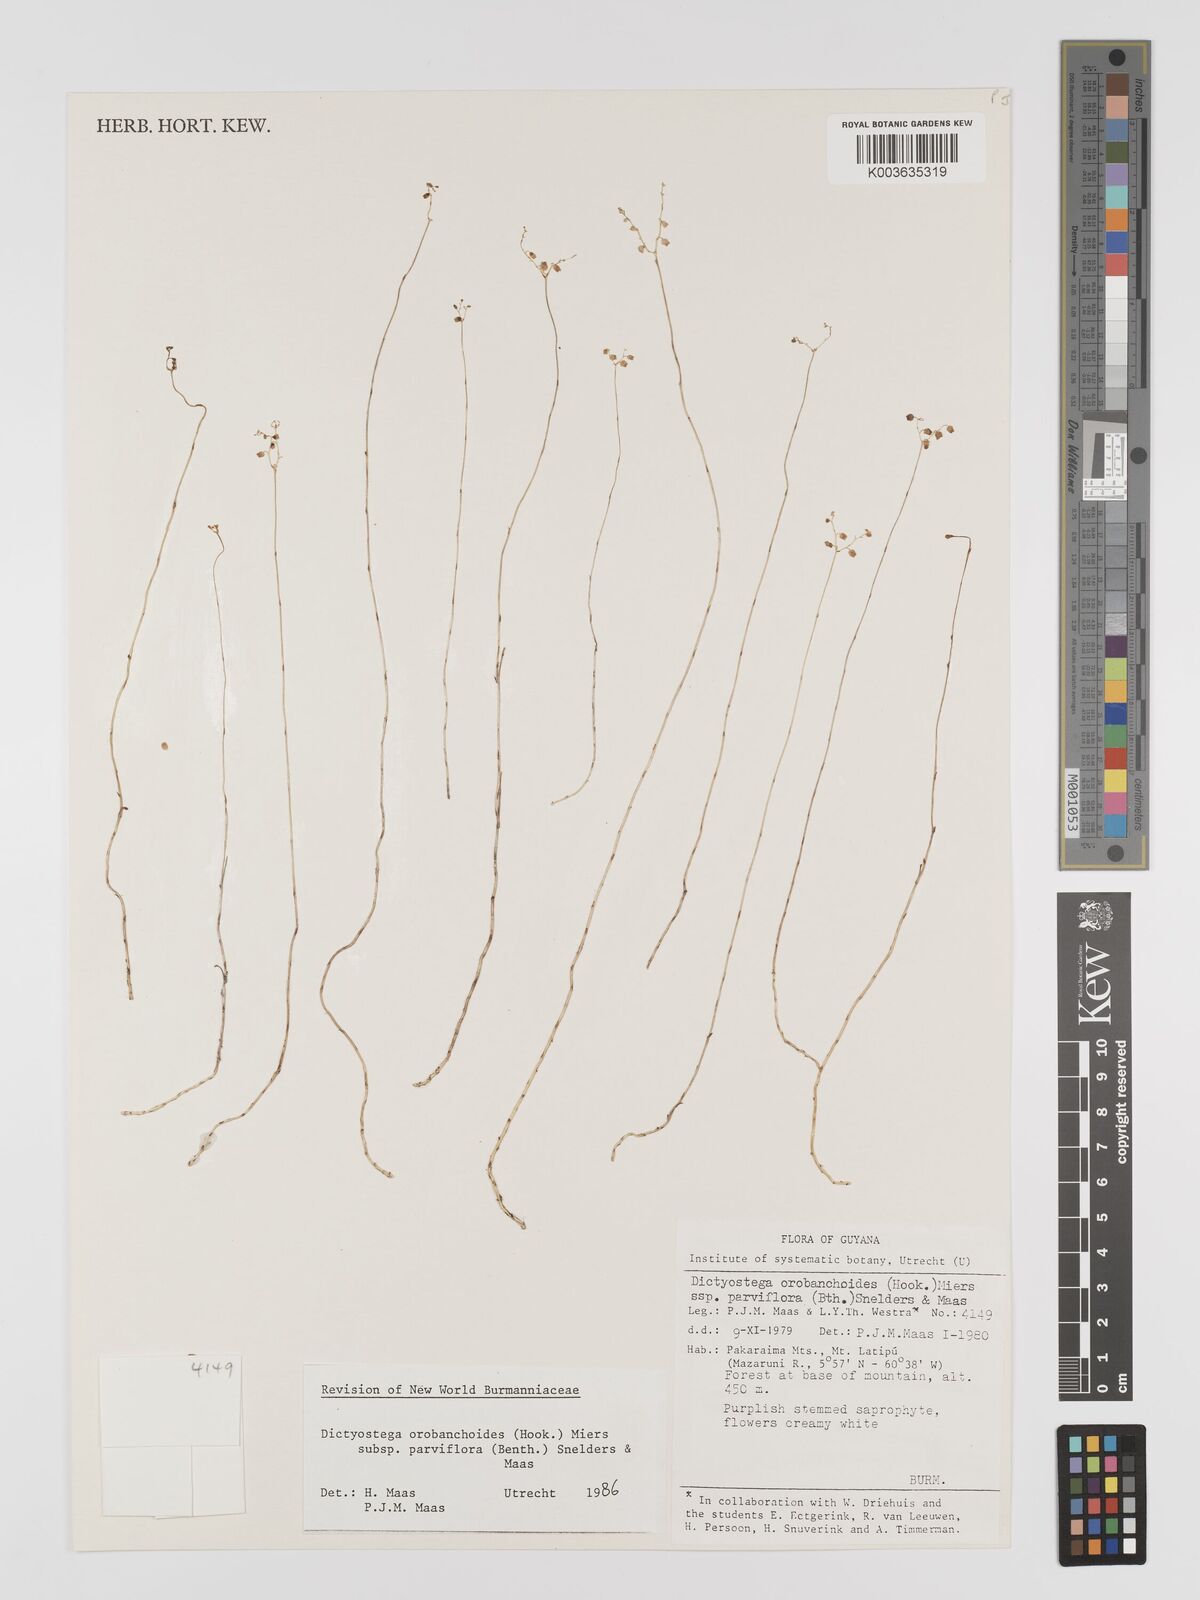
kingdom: Plantae
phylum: Tracheophyta
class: Liliopsida
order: Dioscoreales
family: Burmanniaceae
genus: Dictyostega
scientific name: Dictyostega orobanchoides
